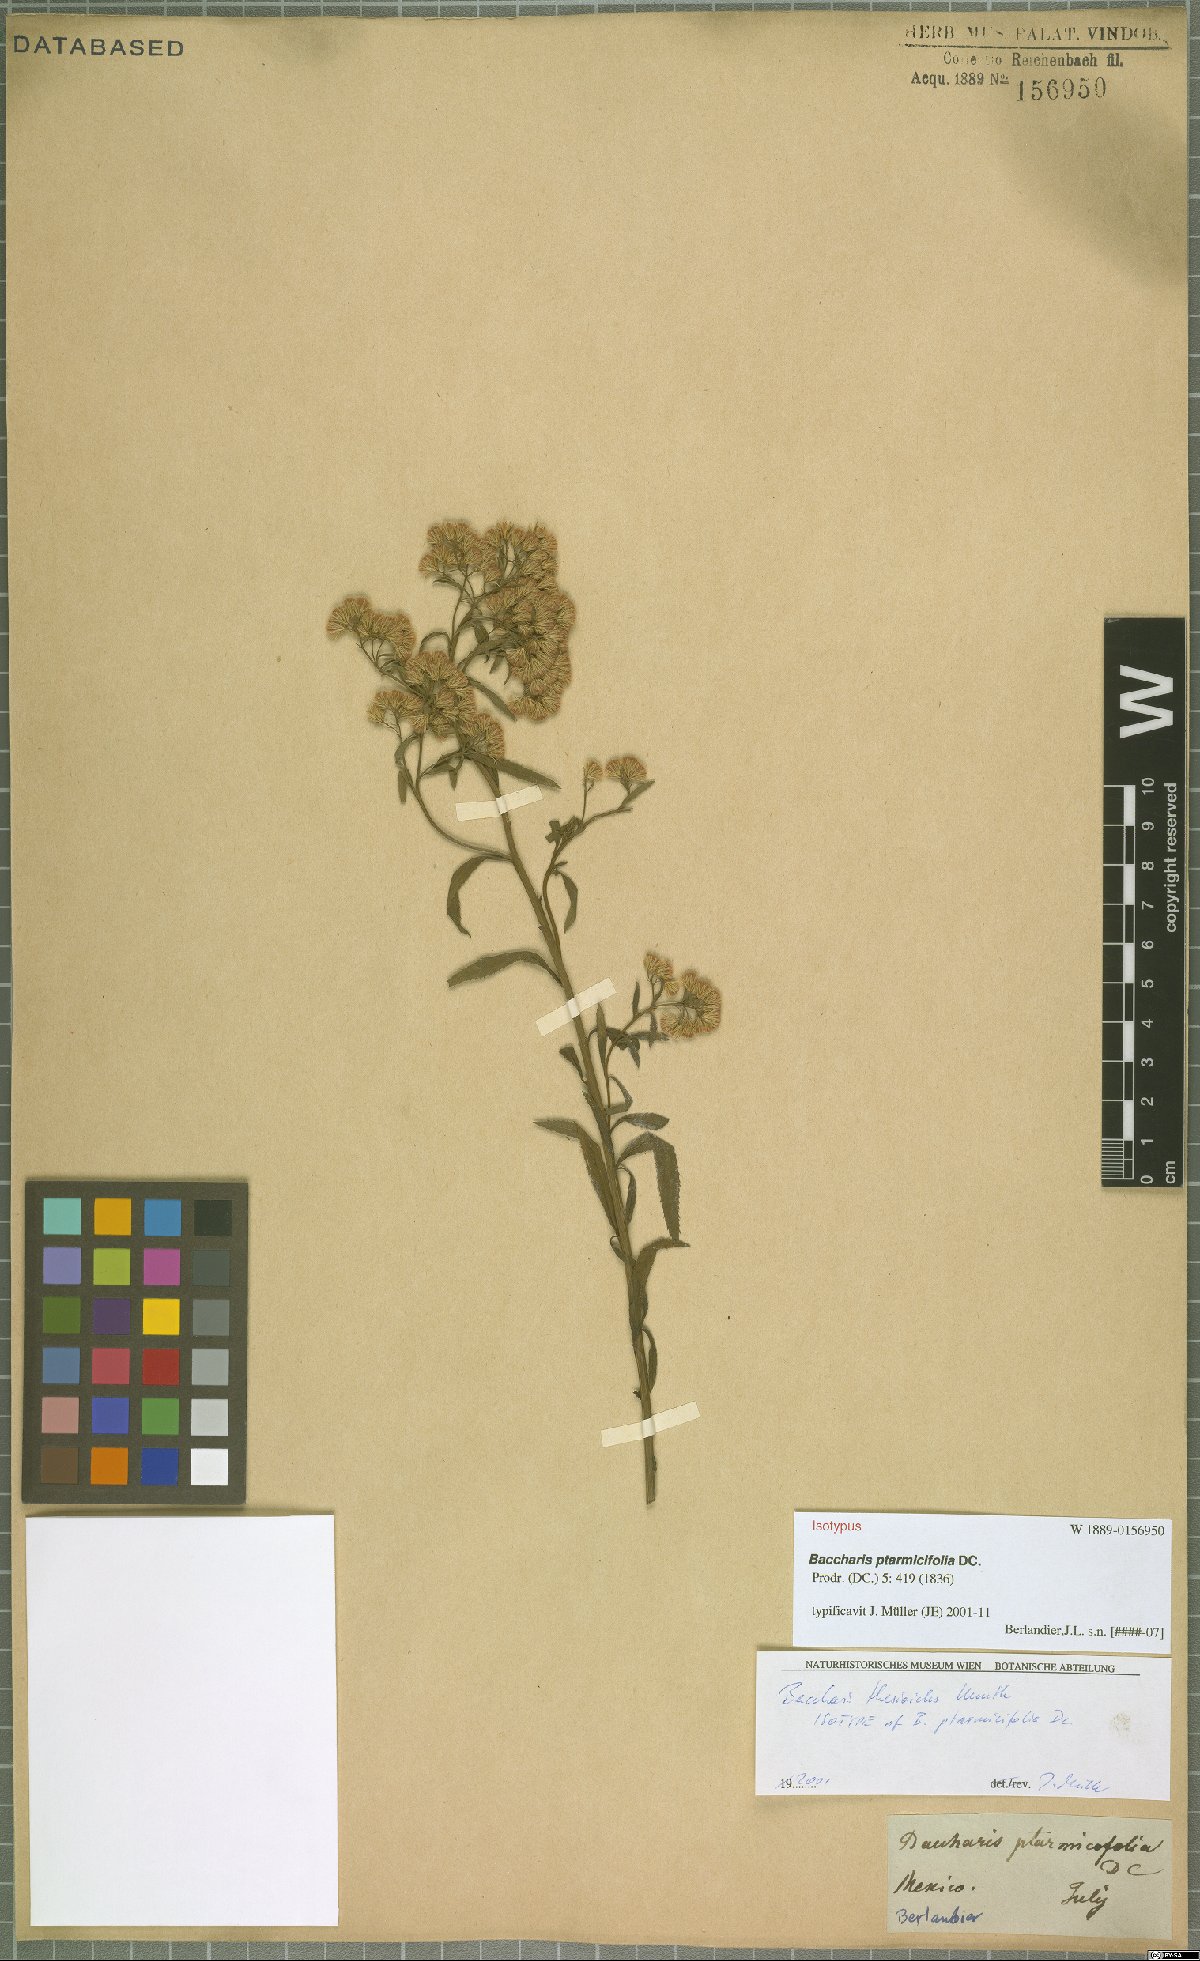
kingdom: Plantae
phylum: Tracheophyta
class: Magnoliopsida
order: Asterales
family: Asteraceae
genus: Baccharis
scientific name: Baccharis ptarmicifolia
